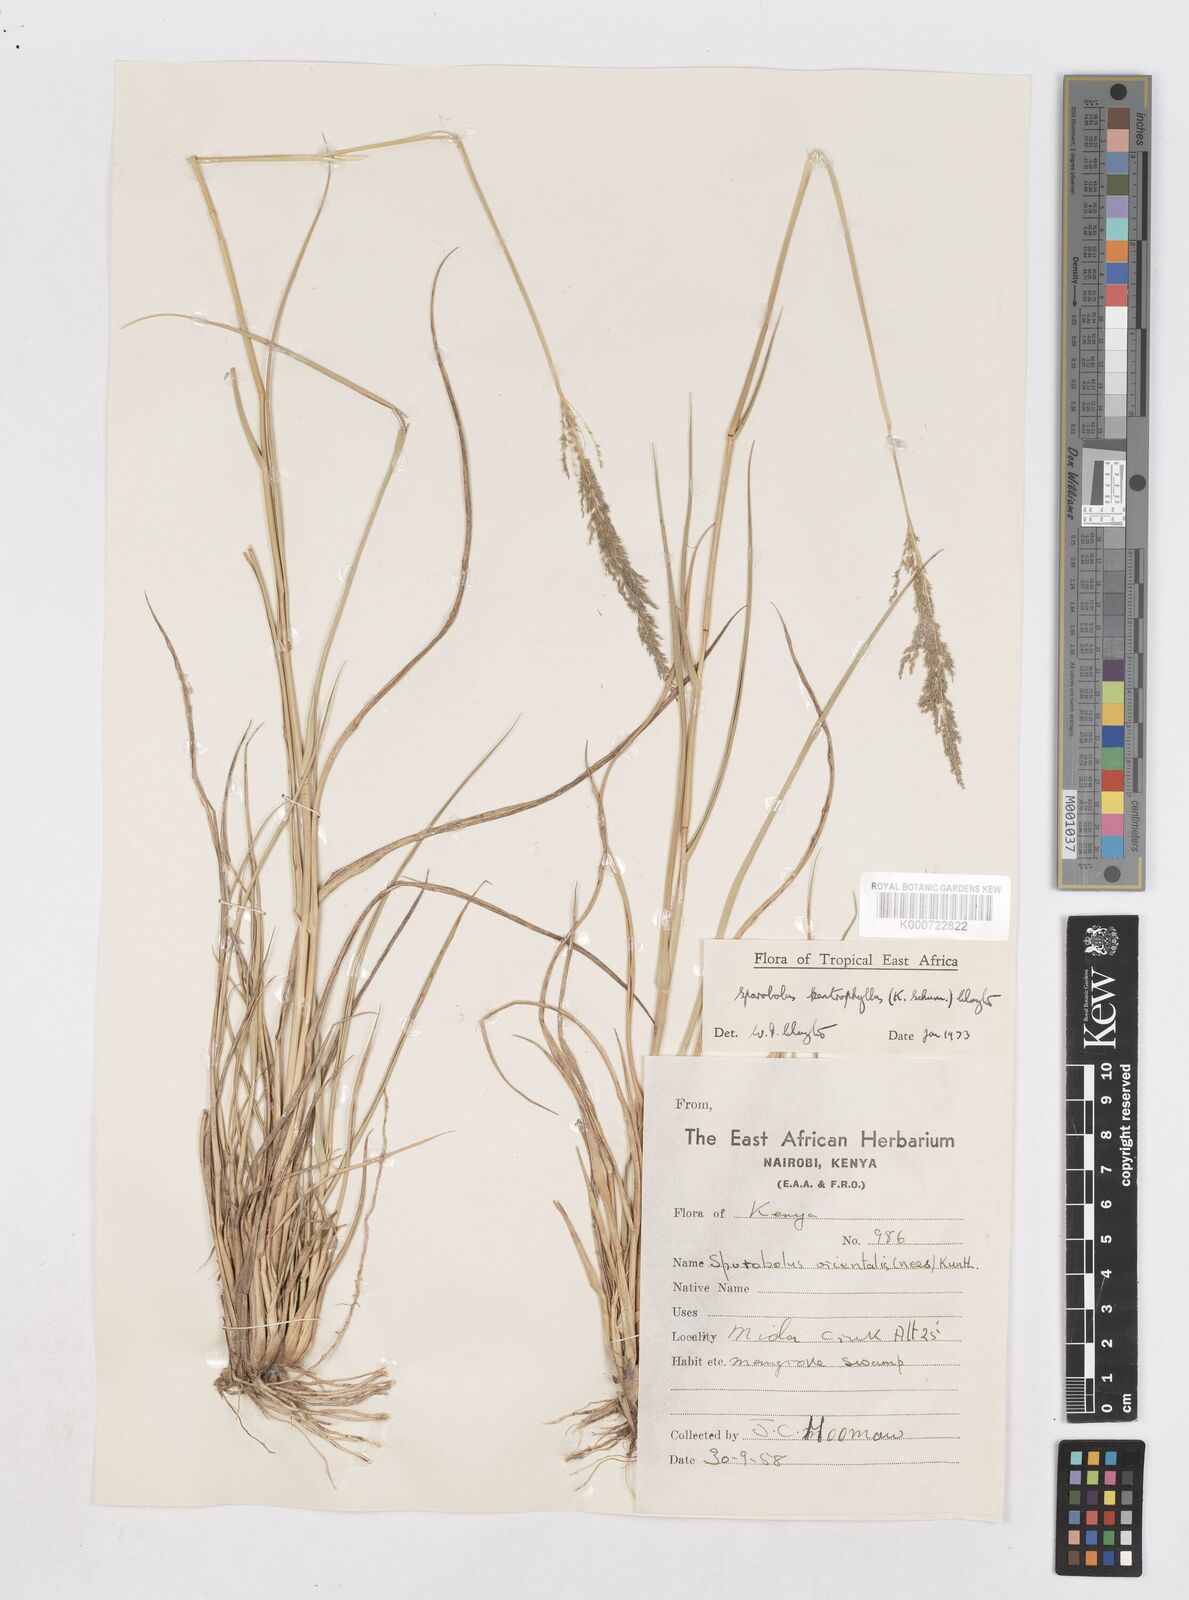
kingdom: Plantae
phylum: Tracheophyta
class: Liliopsida
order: Poales
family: Poaceae
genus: Sporobolus
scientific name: Sporobolus ioclados
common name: Pan dropseed
